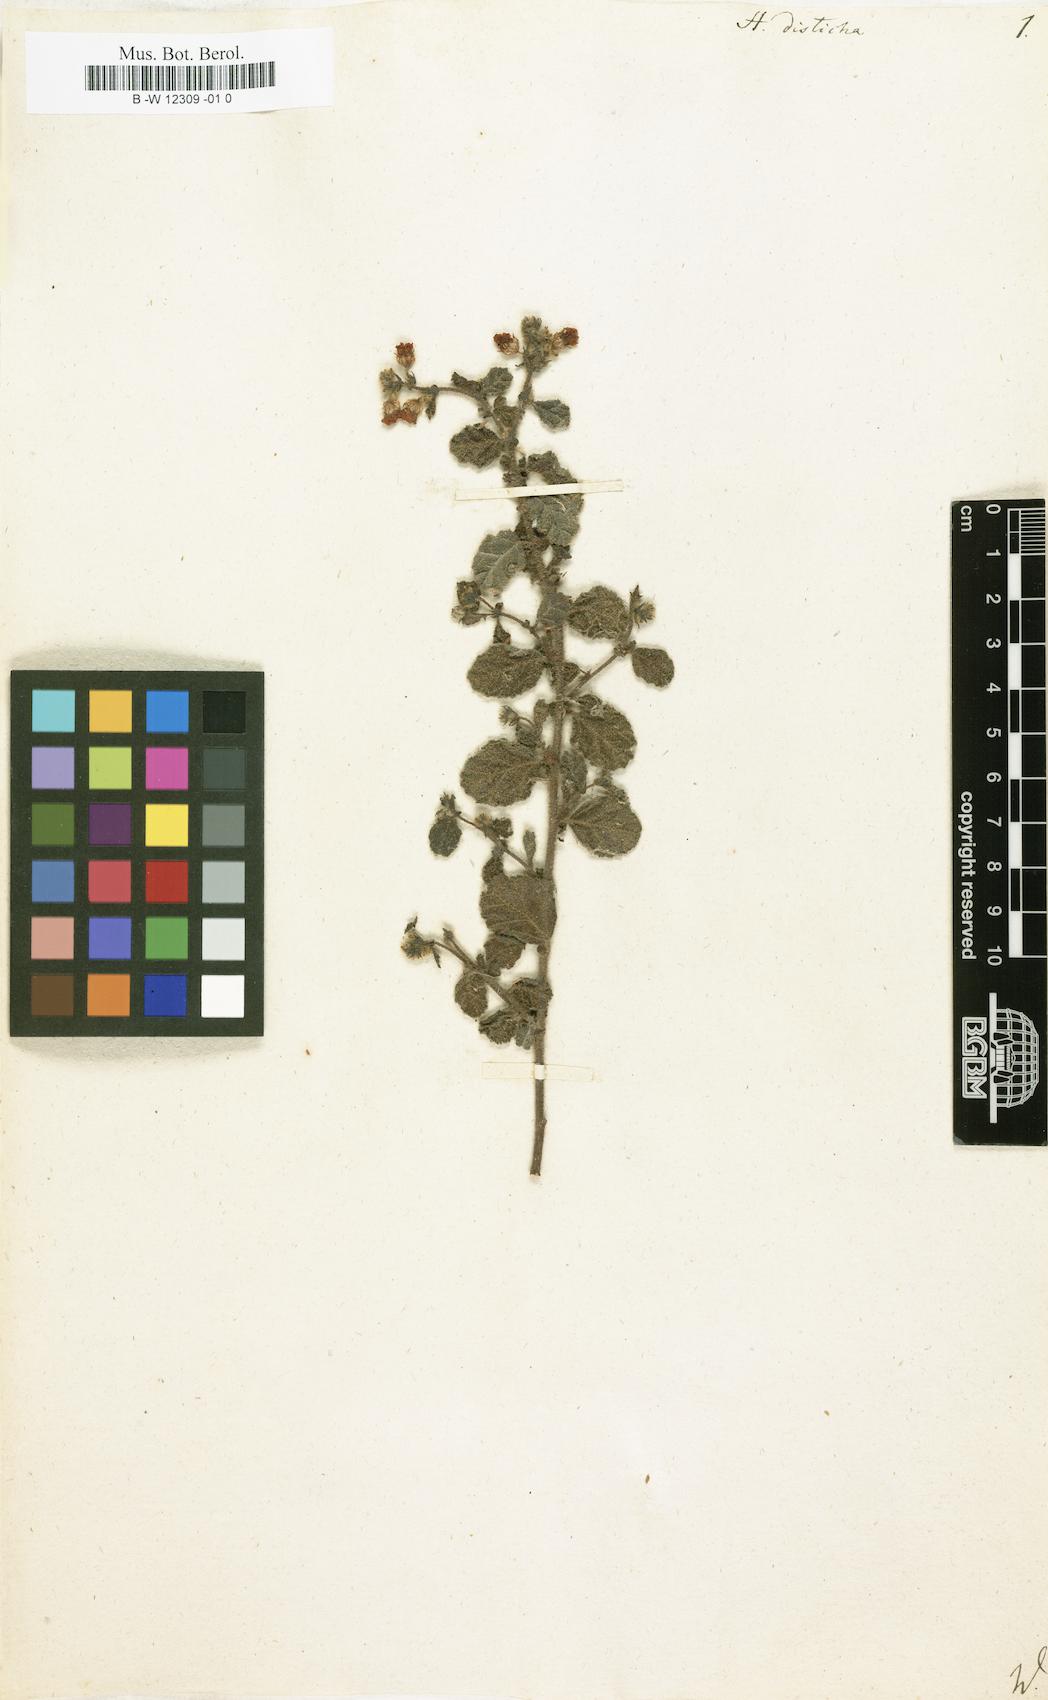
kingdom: Plantae
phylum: Tracheophyta
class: Magnoliopsida
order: Malvales
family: Malvaceae
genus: Hermannia
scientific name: Hermannia disticha
